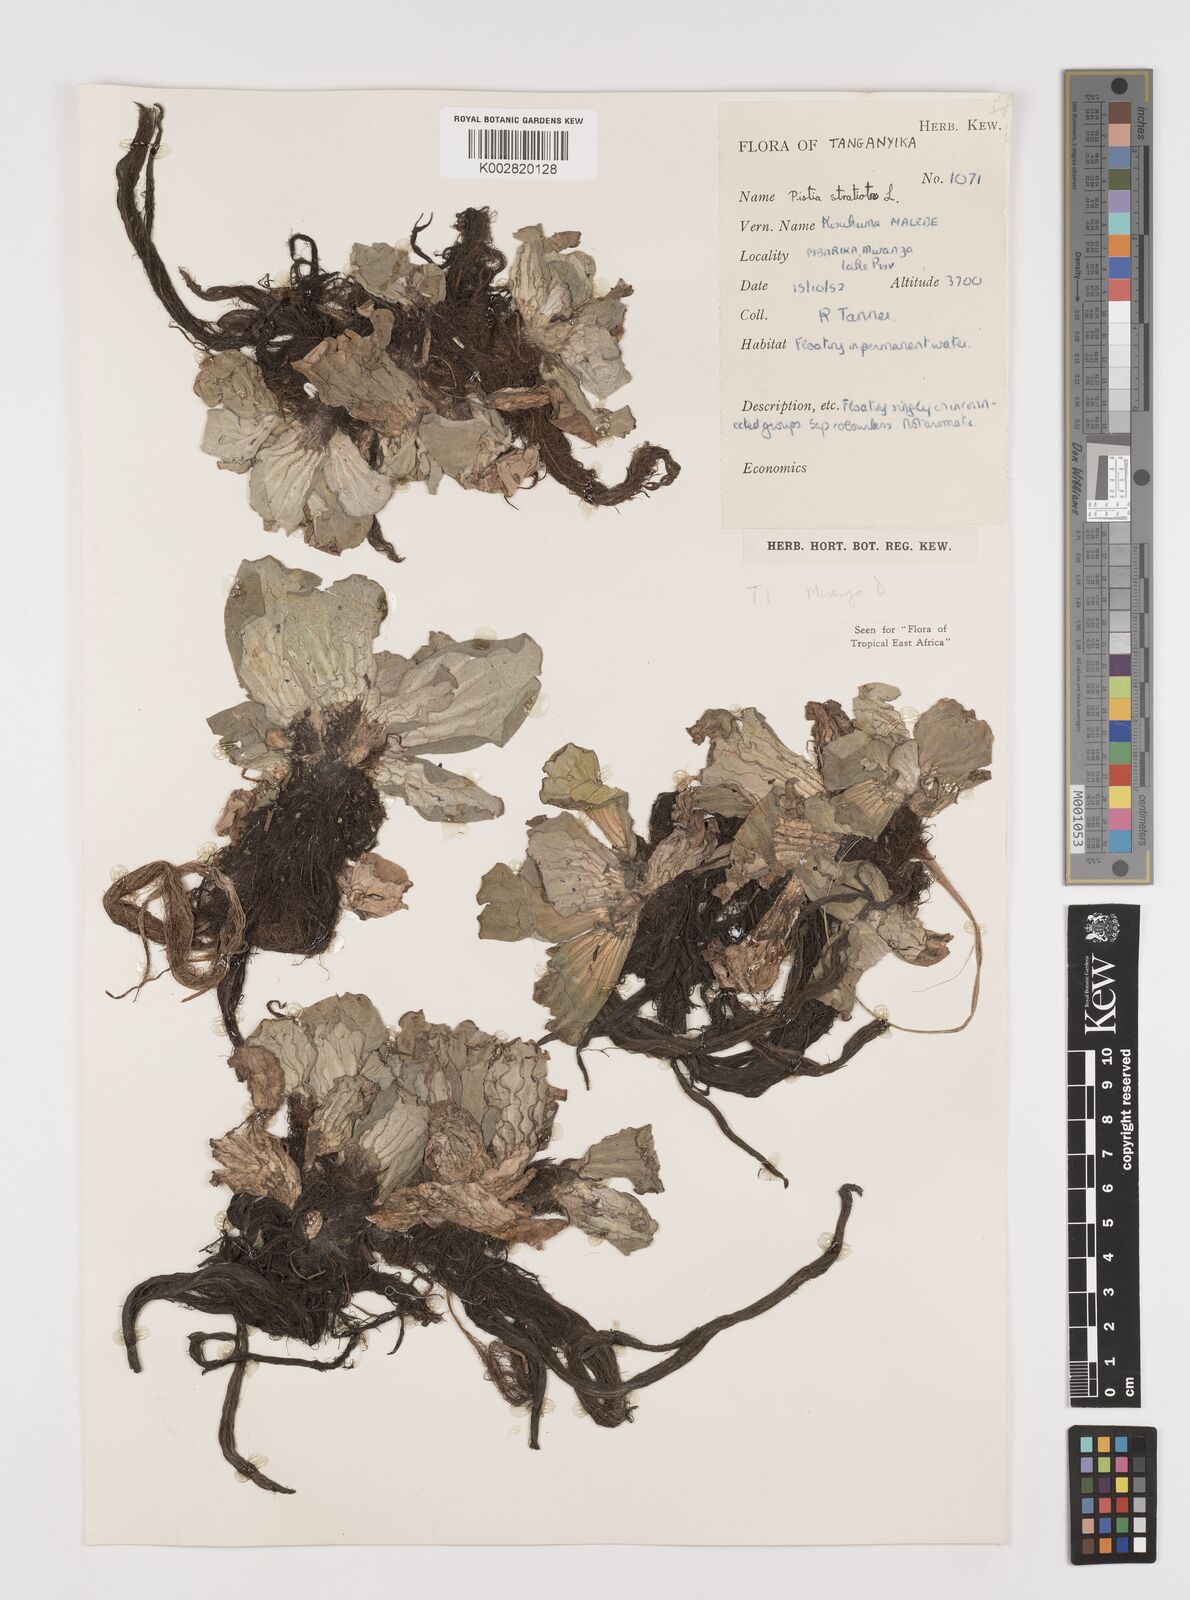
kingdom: Plantae
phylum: Tracheophyta
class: Liliopsida
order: Alismatales
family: Araceae
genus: Pistia
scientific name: Pistia stratiotes
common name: Water lettuce
